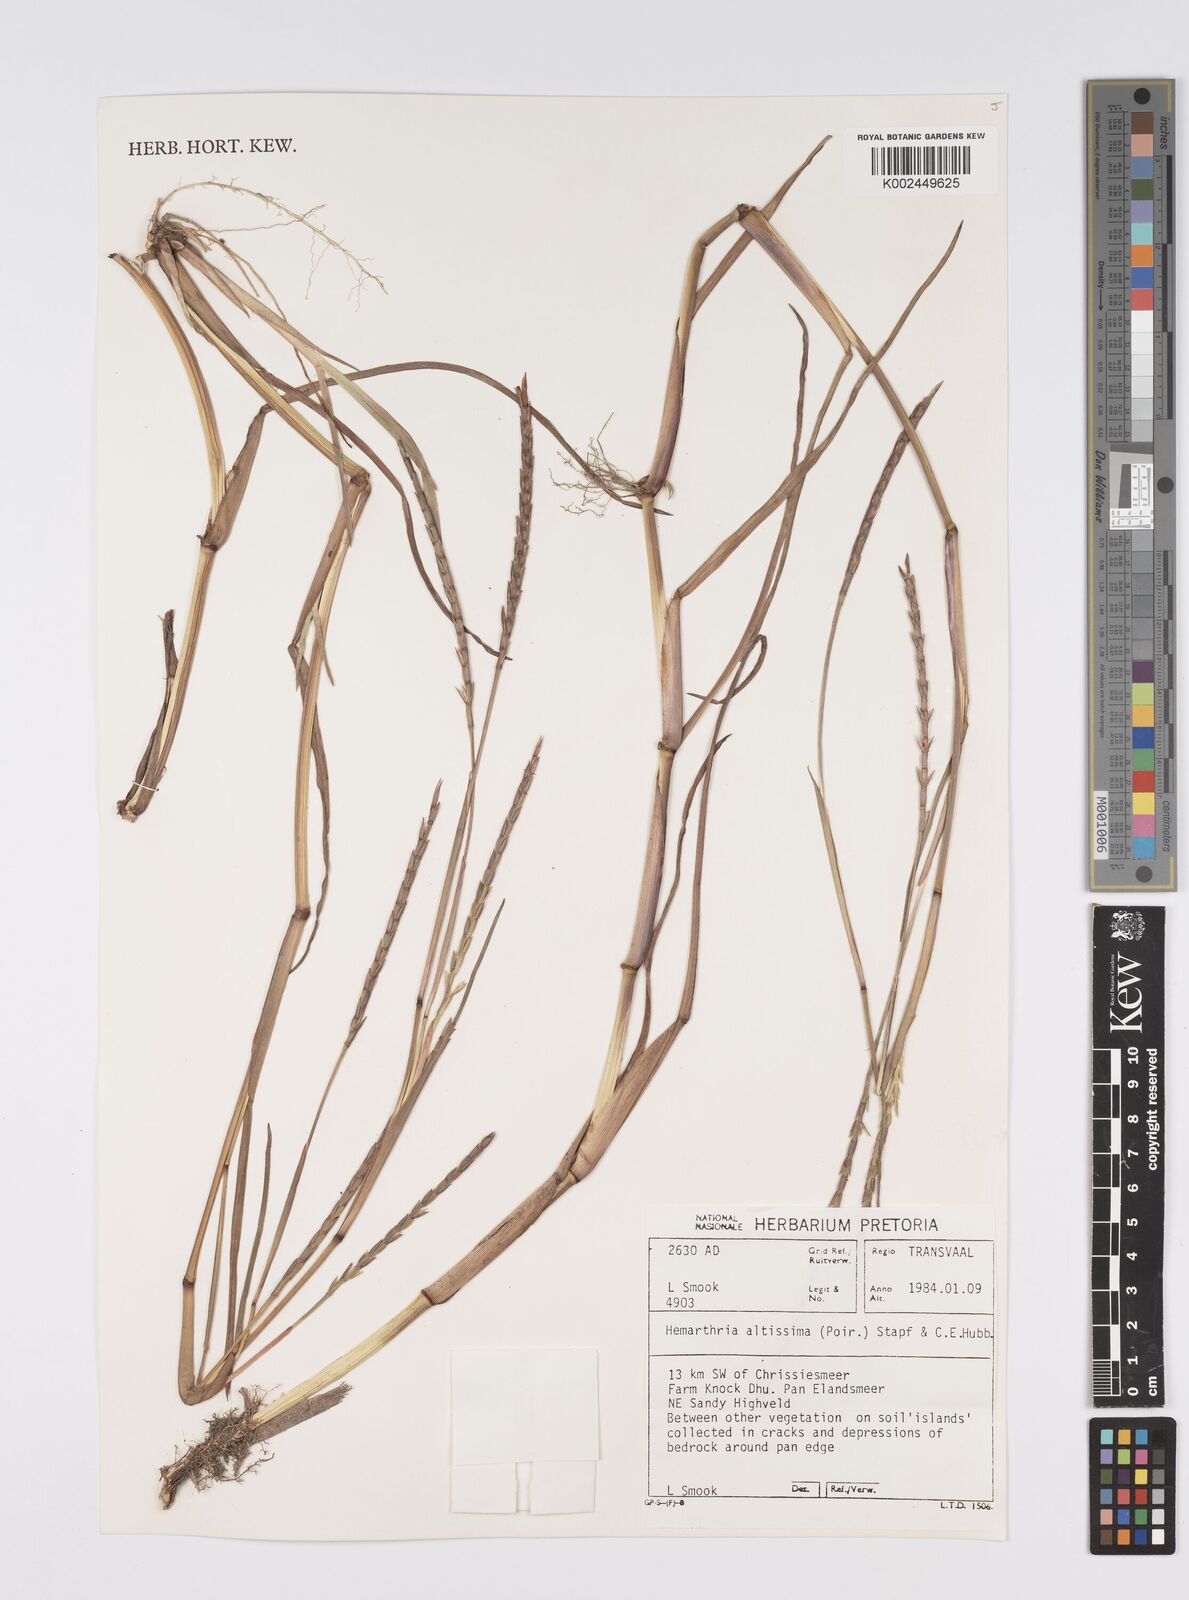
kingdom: Plantae
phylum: Tracheophyta
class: Liliopsida
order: Poales
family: Poaceae
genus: Hemarthria
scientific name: Hemarthria altissima
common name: African jointgrass
